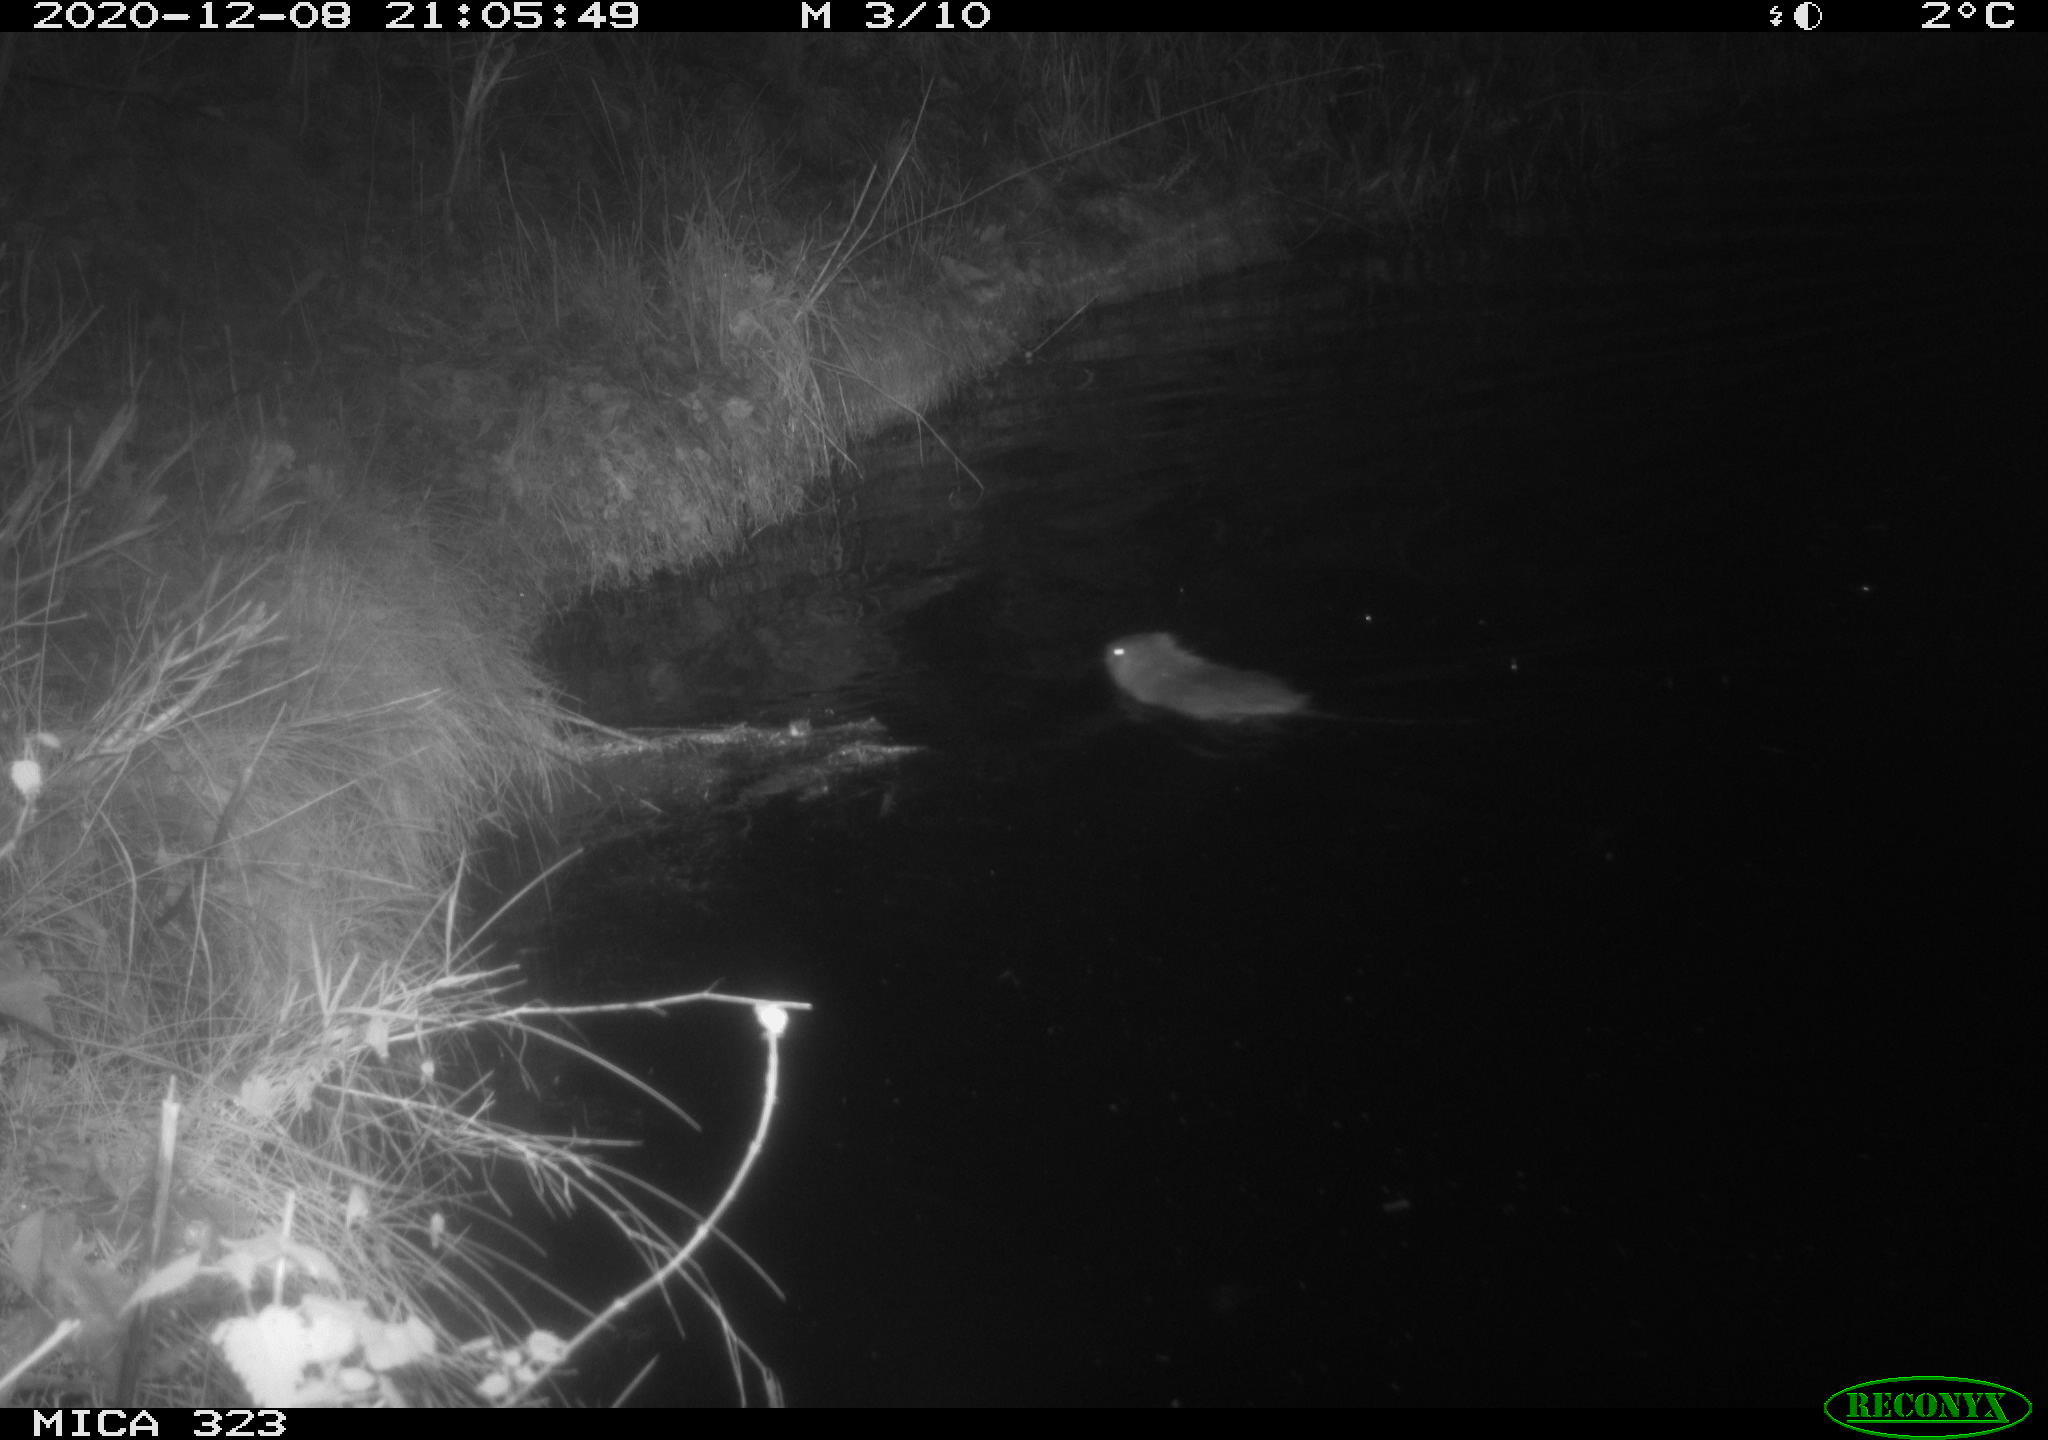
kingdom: Animalia
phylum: Chordata
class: Mammalia
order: Rodentia
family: Myocastoridae
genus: Myocastor
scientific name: Myocastor coypus
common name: Coypu
